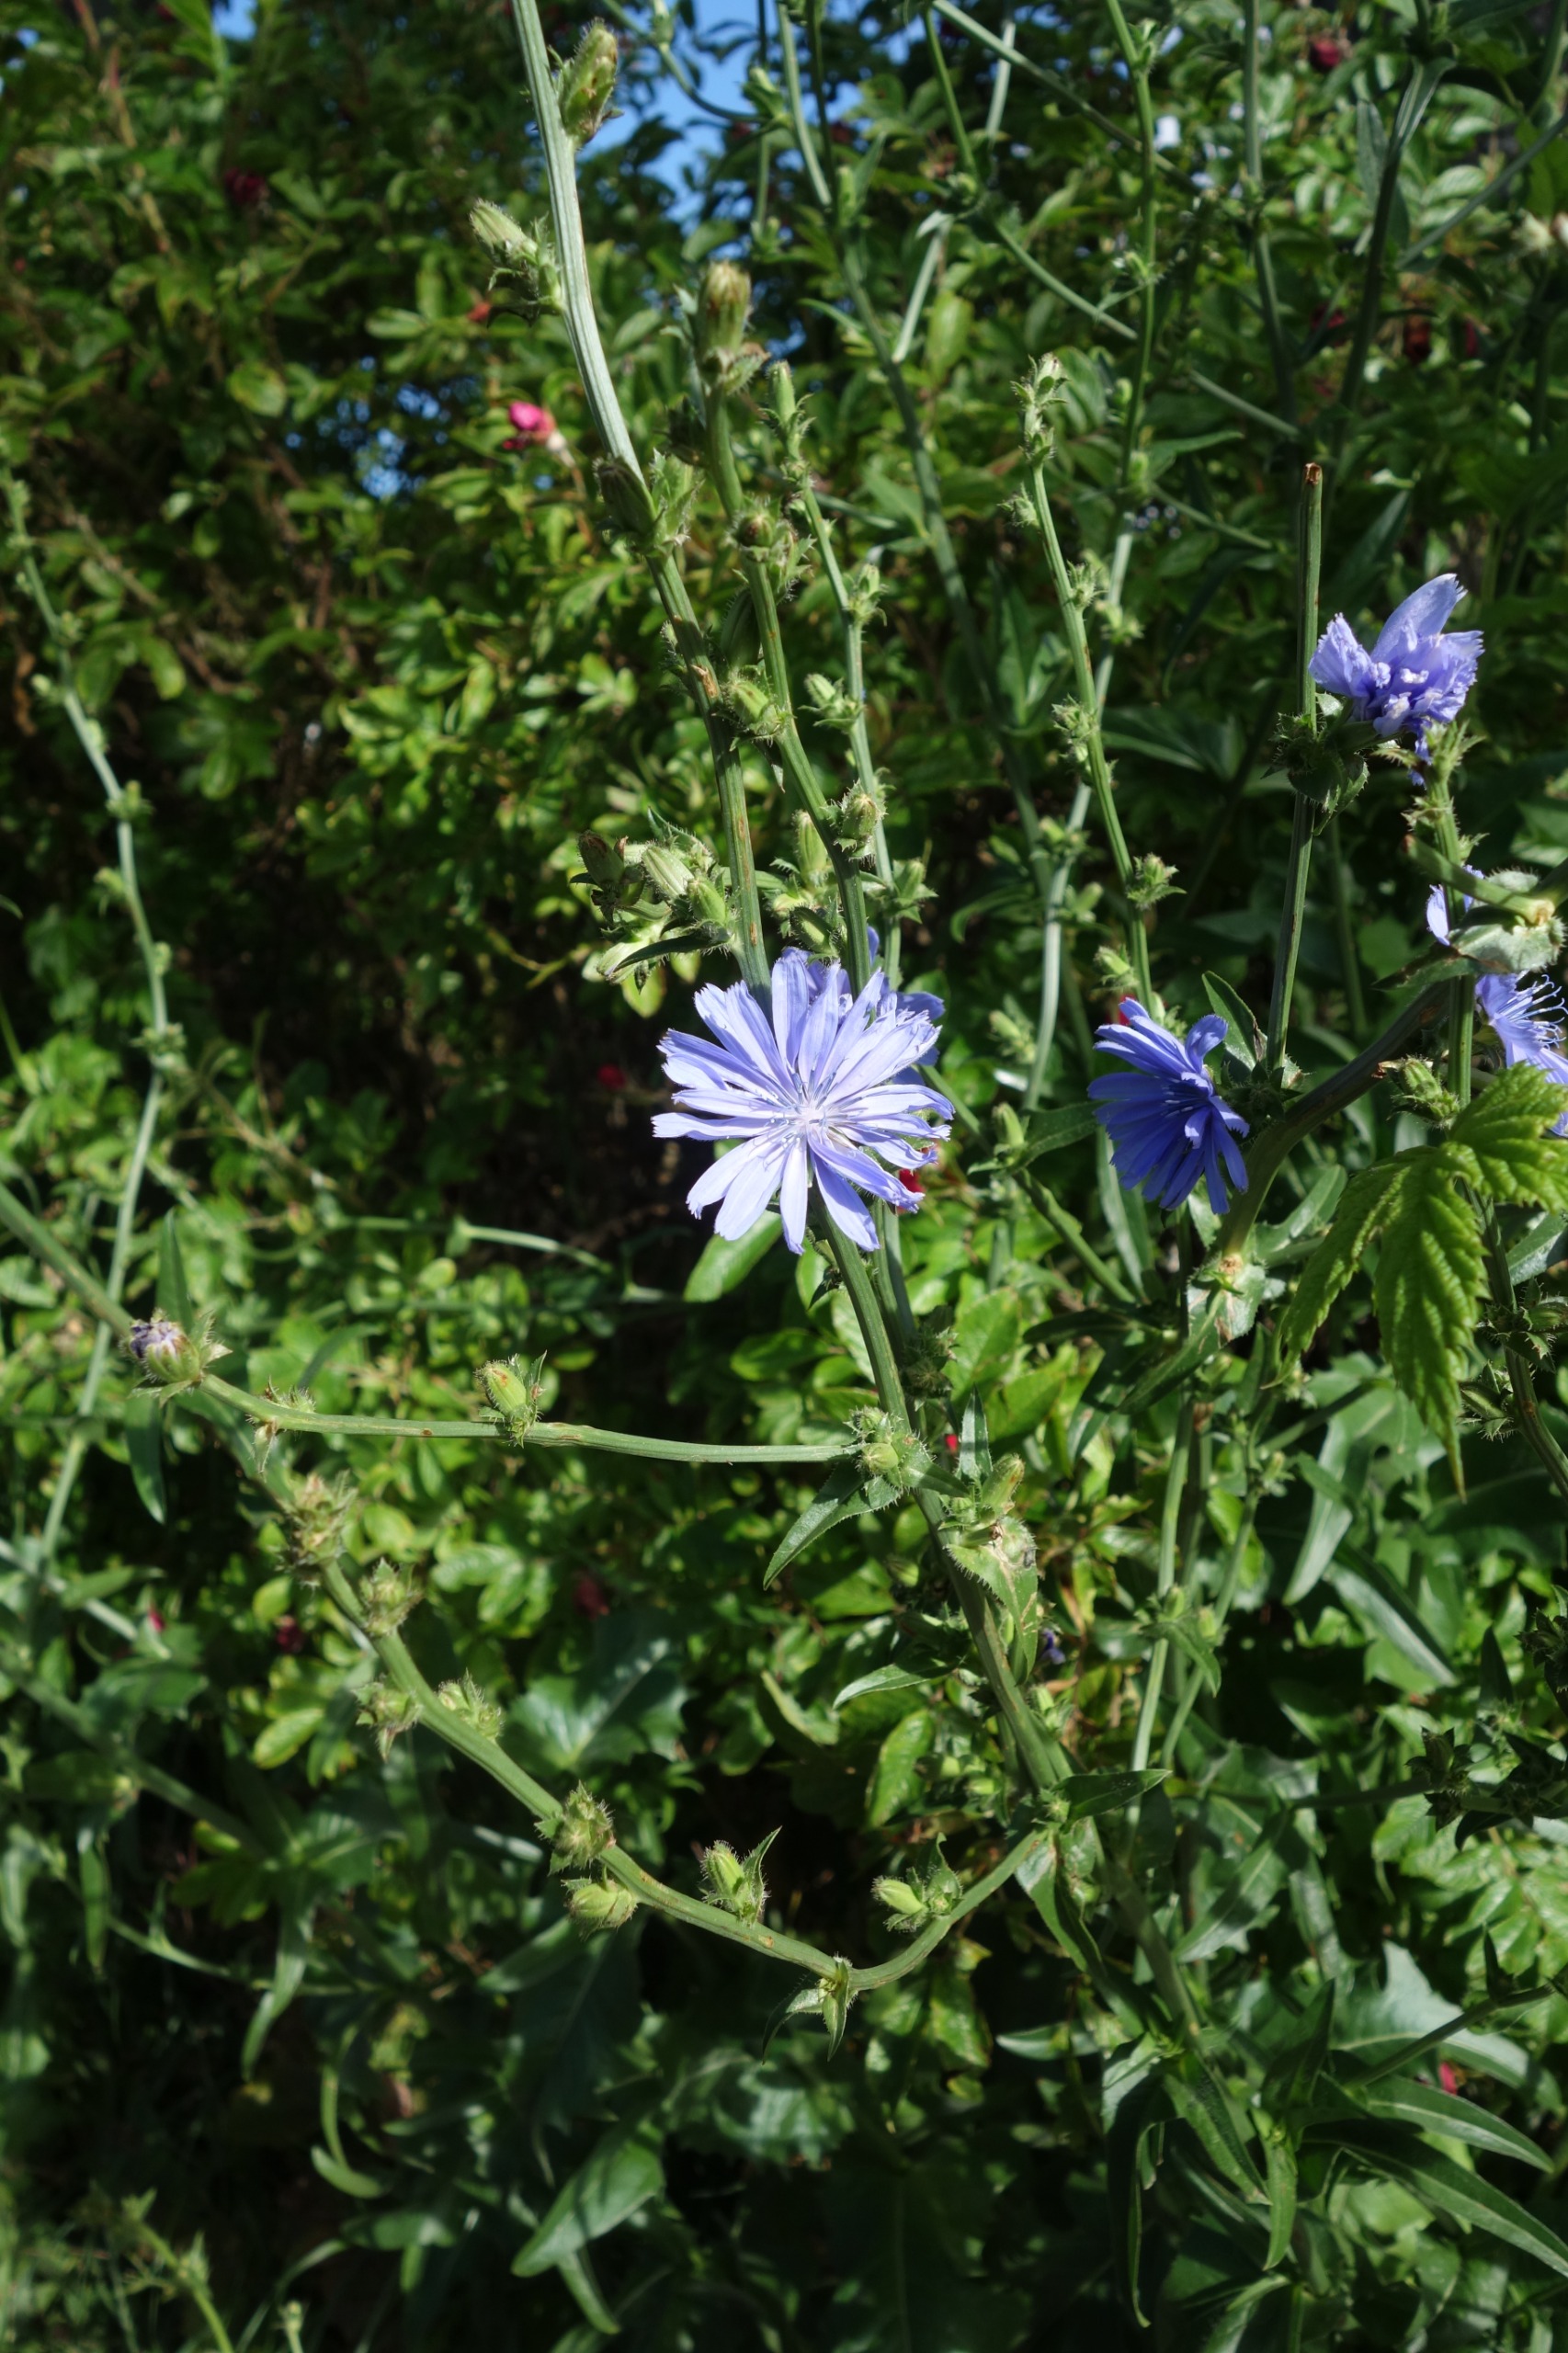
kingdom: Plantae
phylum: Tracheophyta
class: Magnoliopsida
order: Asterales
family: Asteraceae
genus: Cichorium
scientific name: Cichorium intybus
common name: Cikorie
